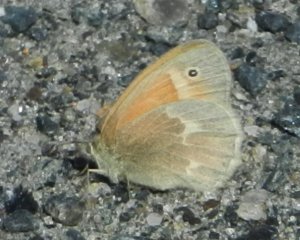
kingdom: Animalia
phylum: Arthropoda
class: Insecta
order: Lepidoptera
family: Nymphalidae
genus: Coenonympha
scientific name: Coenonympha tullia
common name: Large Heath
